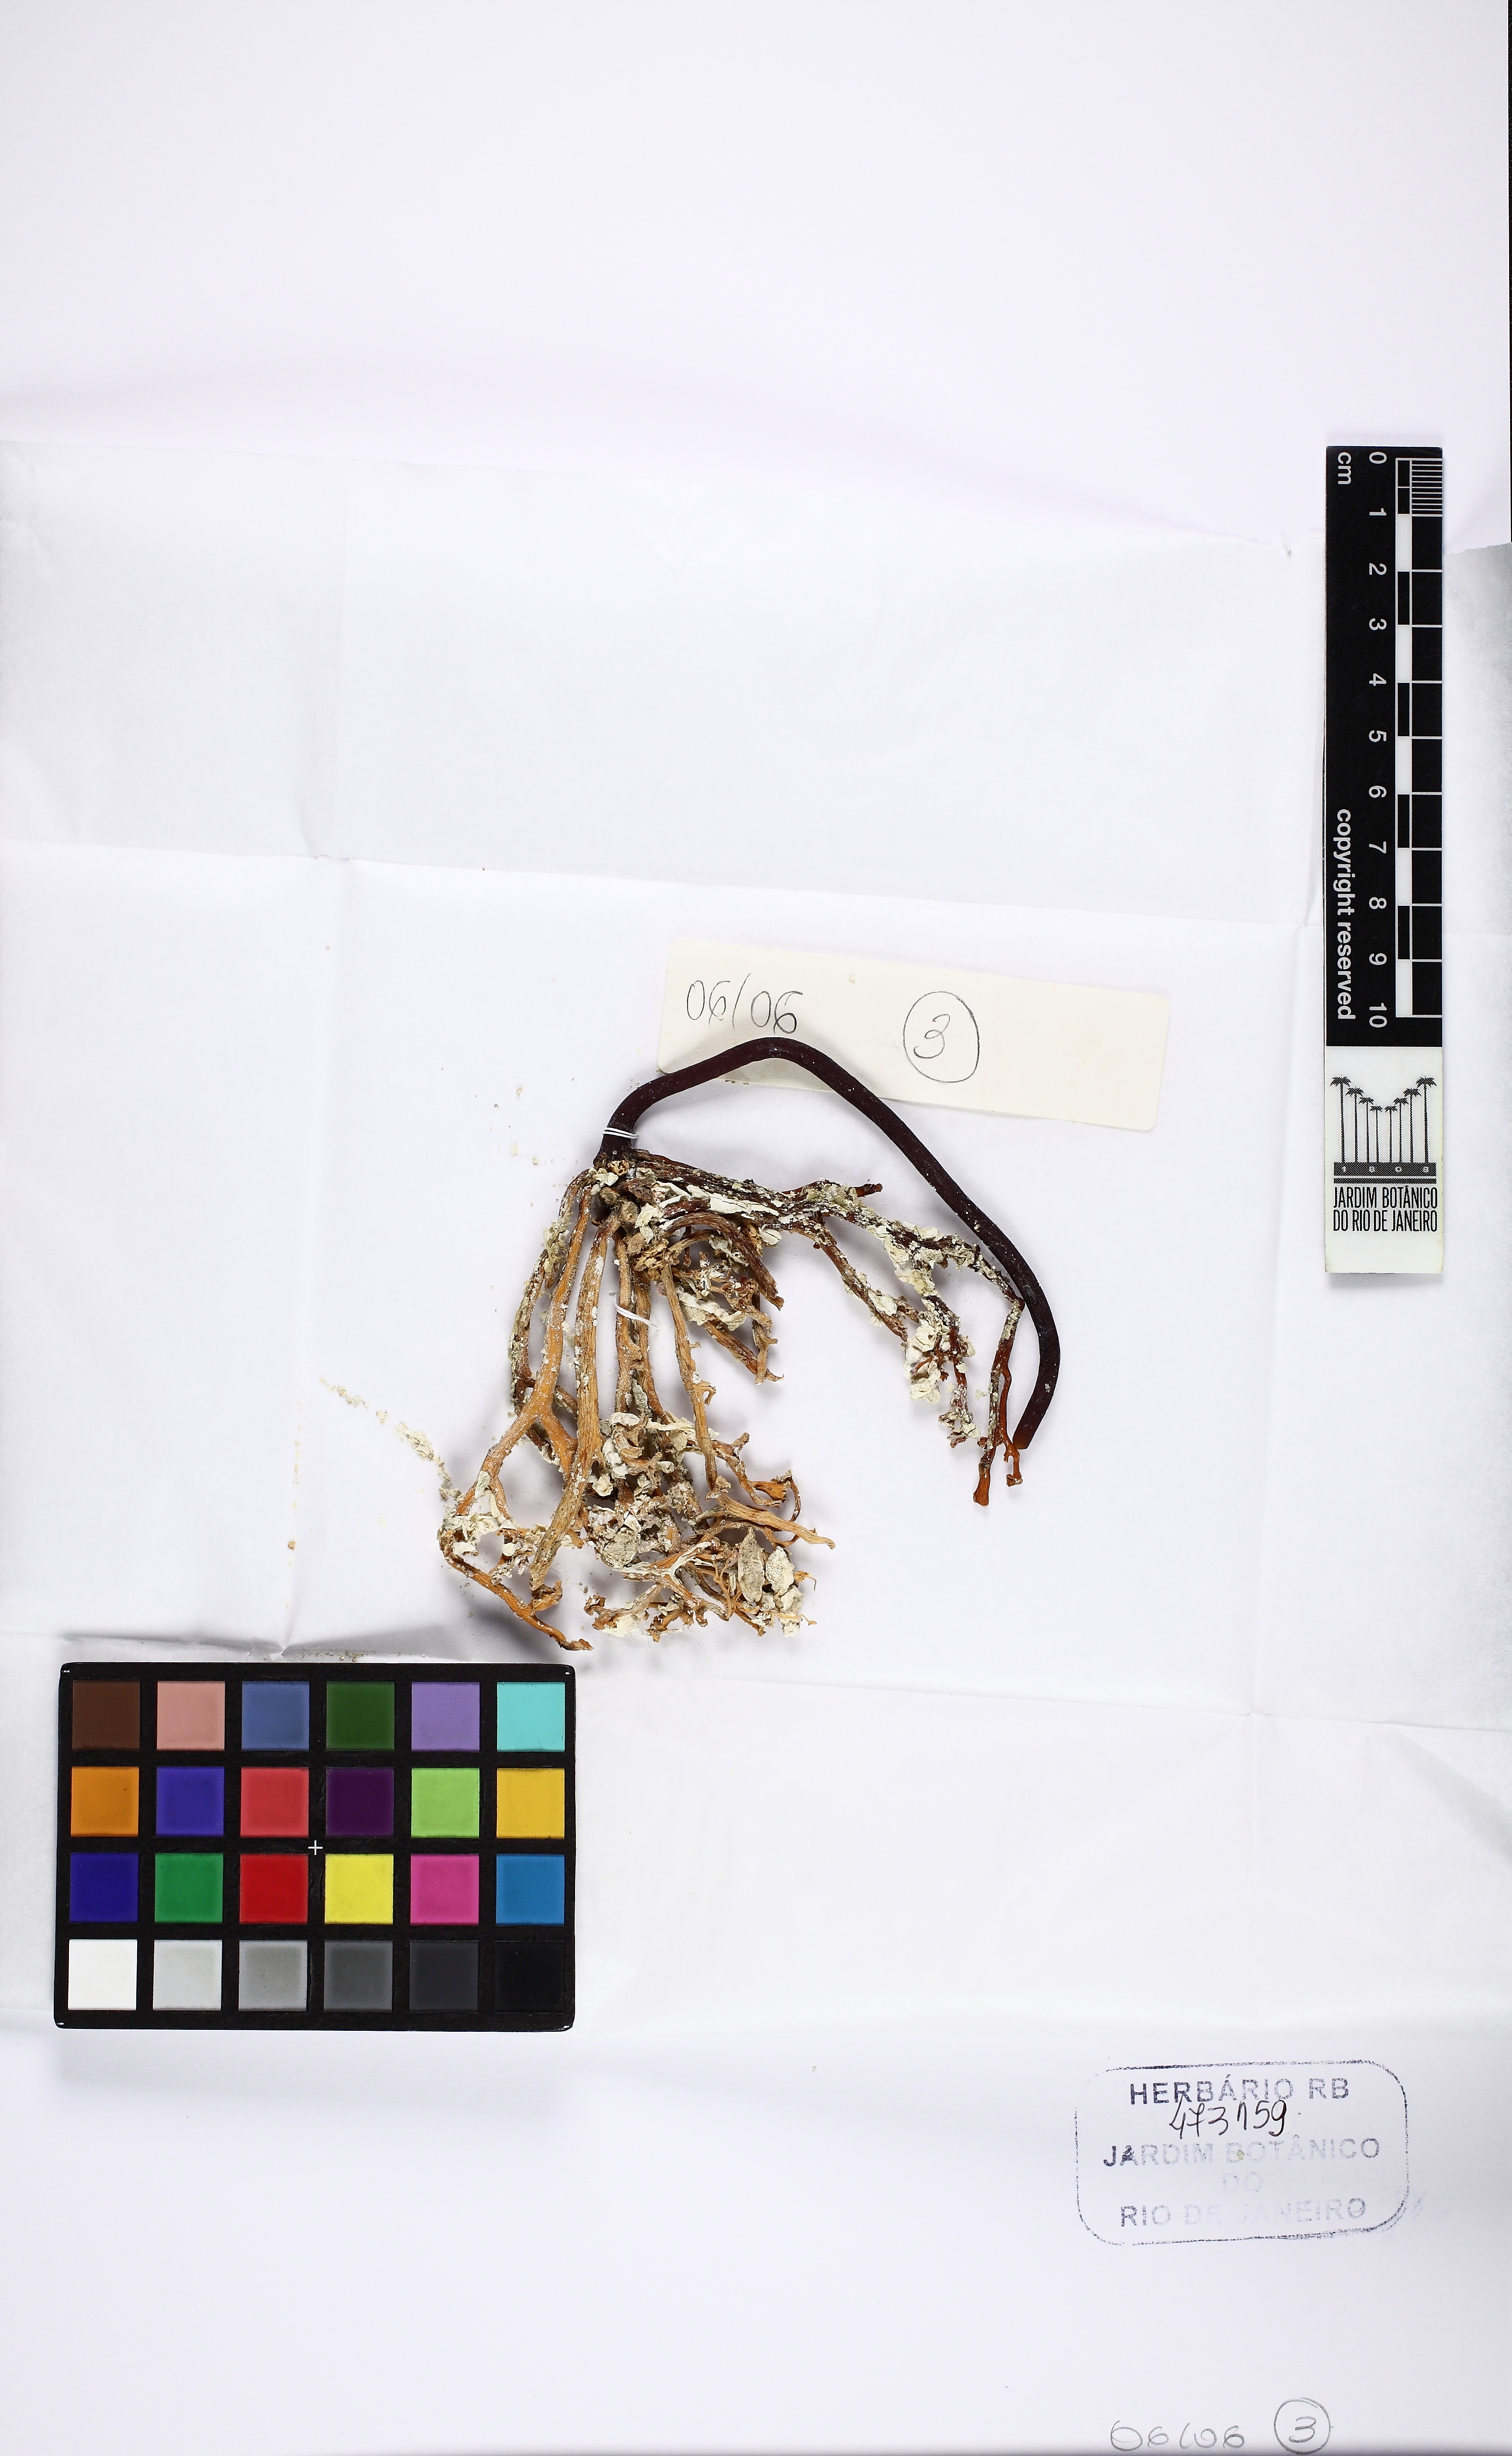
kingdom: Chromista
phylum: Ochrophyta
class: Phaeophyceae
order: Laminariales
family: Laminariaceae
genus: Laminaria
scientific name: Laminaria abyssalis
